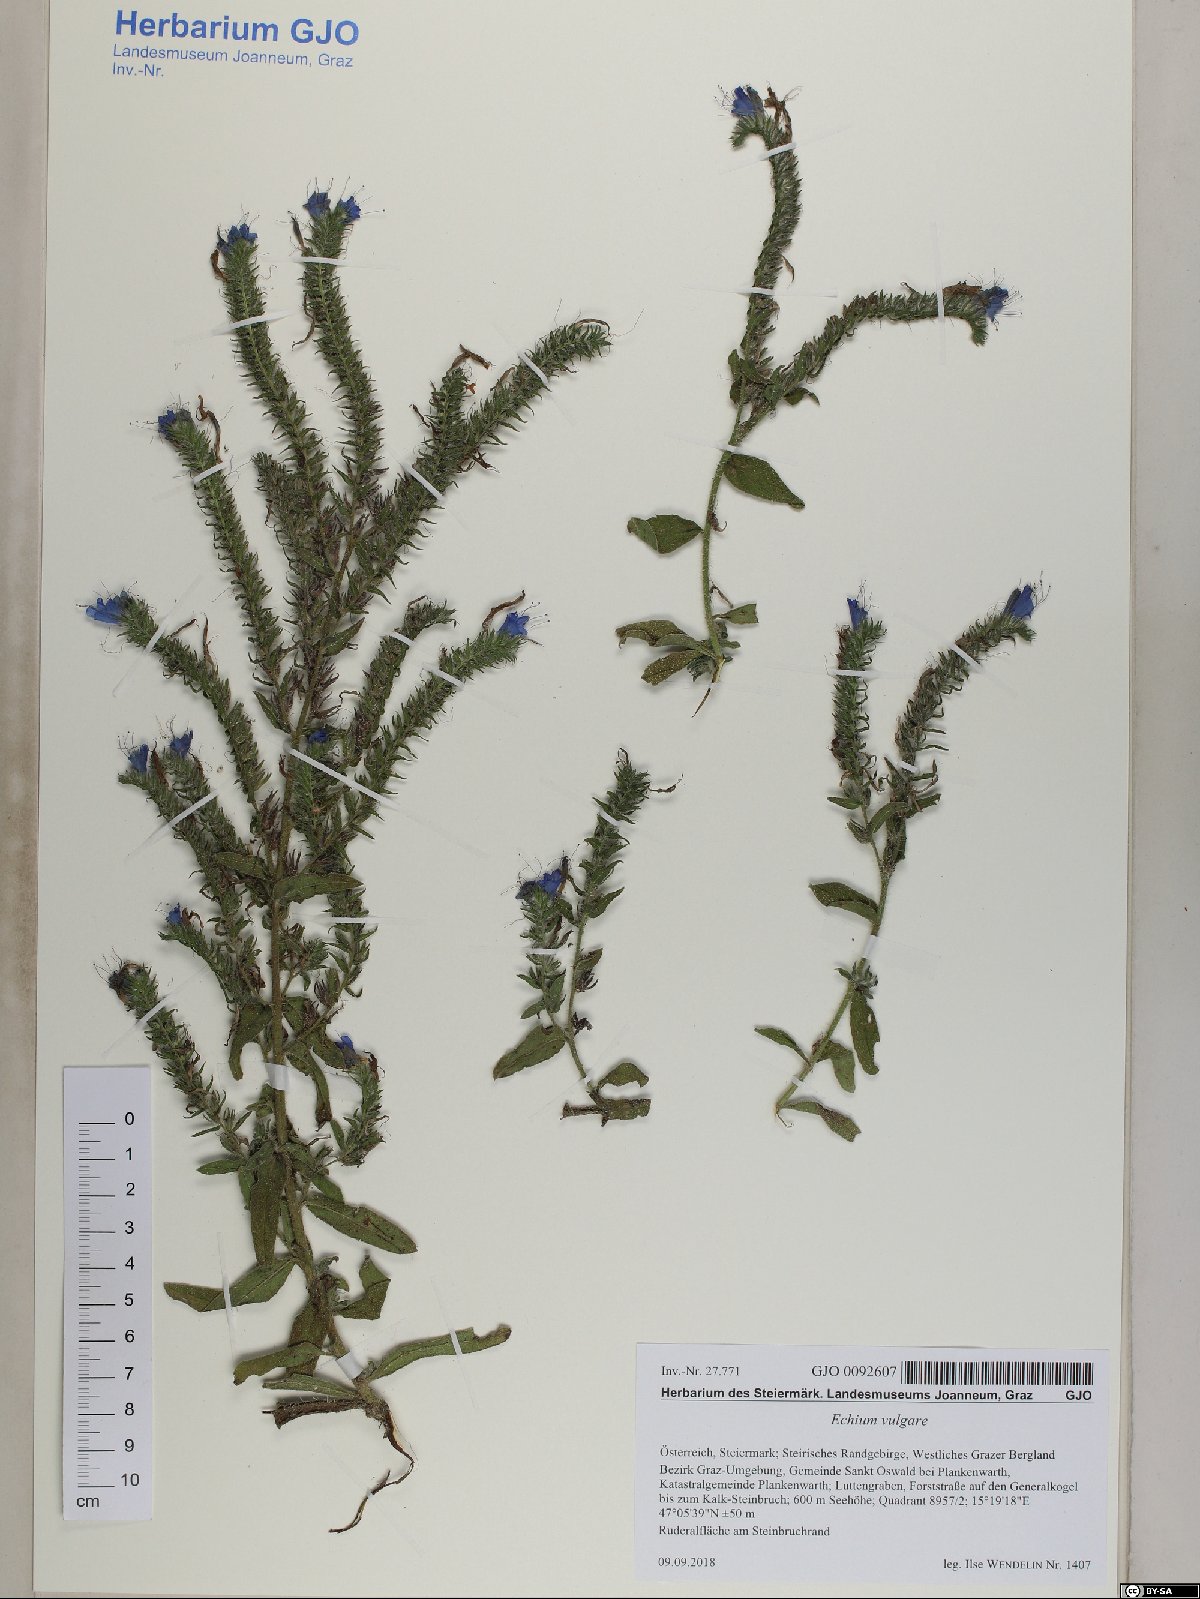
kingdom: Plantae
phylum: Tracheophyta
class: Magnoliopsida
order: Boraginales
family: Boraginaceae
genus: Echium
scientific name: Echium vulgare
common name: Common viper's bugloss
